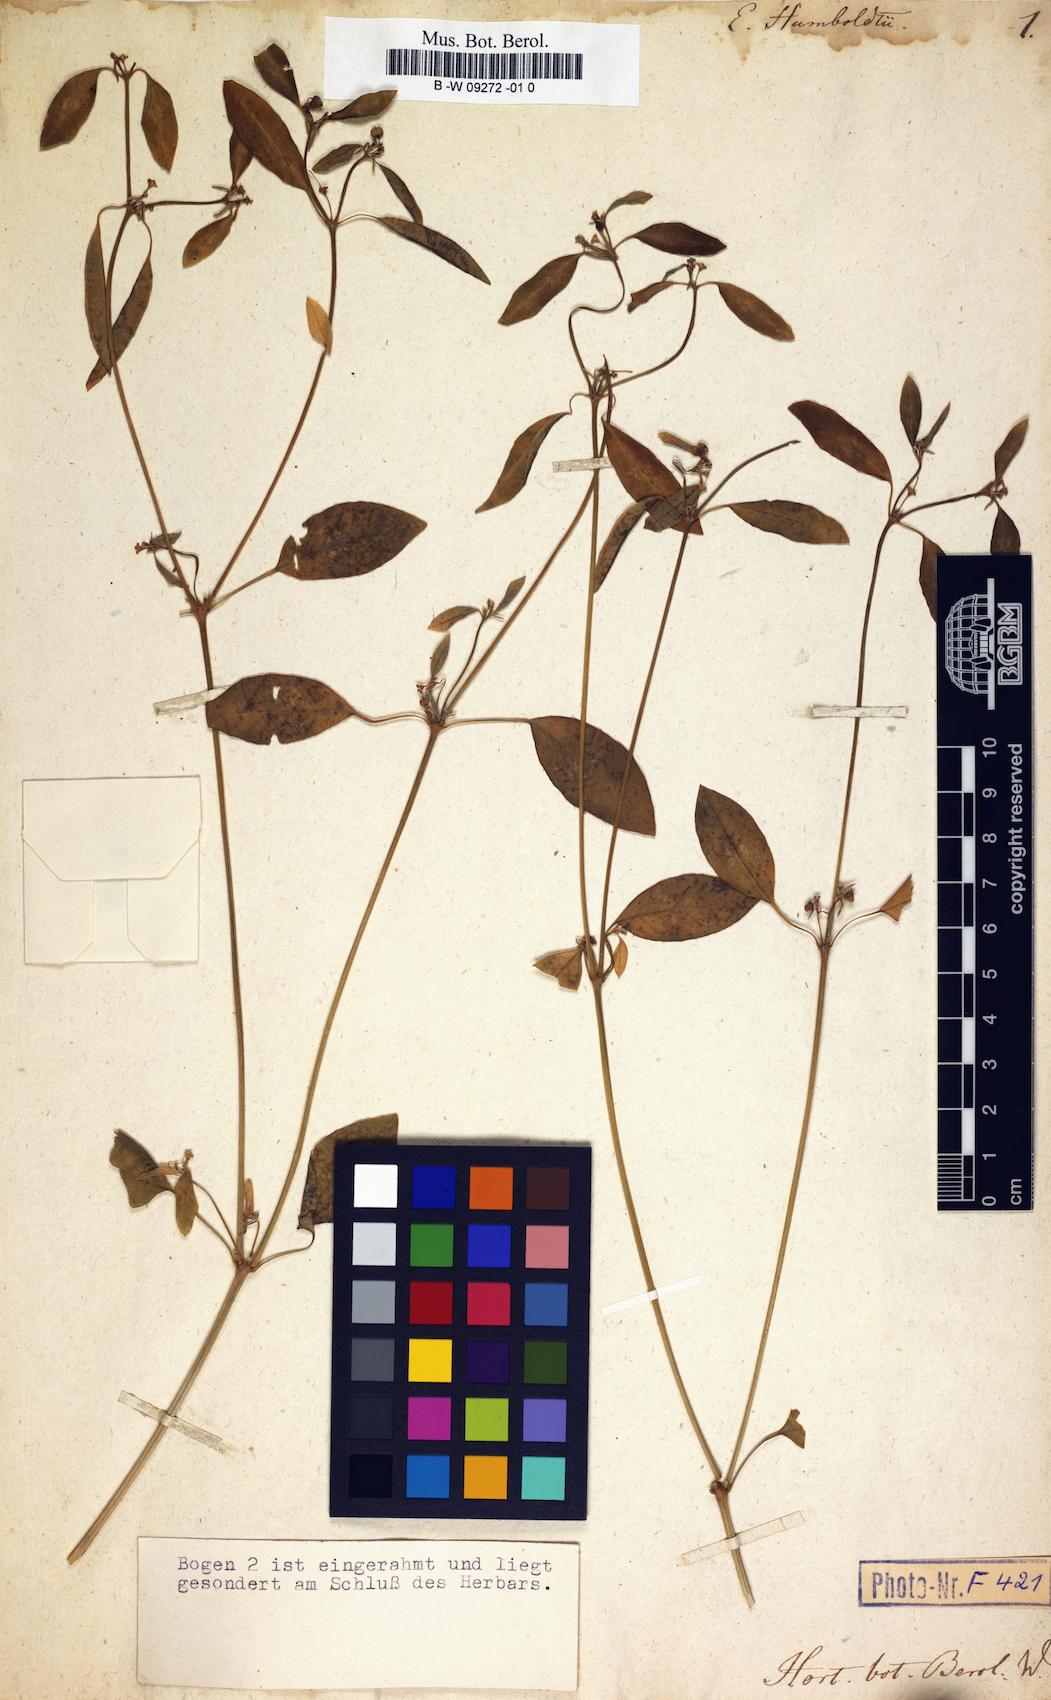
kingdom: Plantae
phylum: Tracheophyta
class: Magnoliopsida
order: Malpighiales
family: Euphorbiaceae
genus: Euphorbia
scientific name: Euphorbia graminea
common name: Grassleaf spurge
